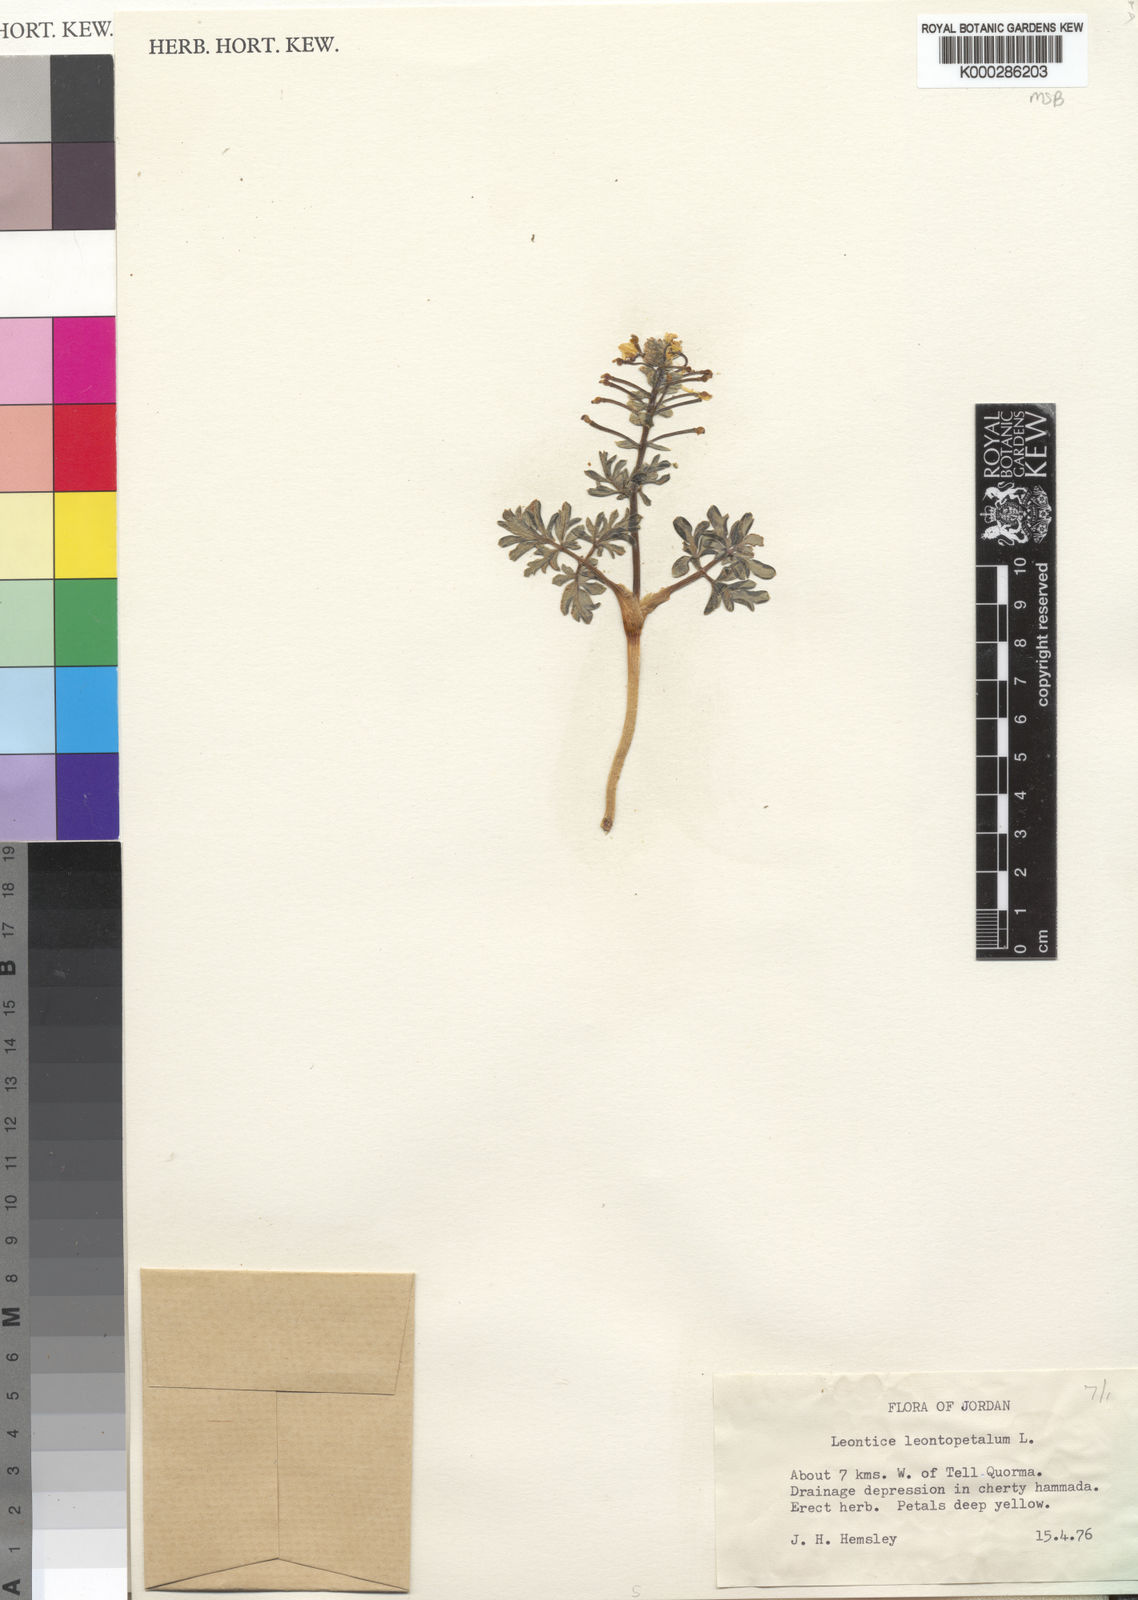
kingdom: Plantae
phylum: Tracheophyta
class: Magnoliopsida
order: Ranunculales
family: Berberidaceae
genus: Leontice
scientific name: Leontice leontopetalum
